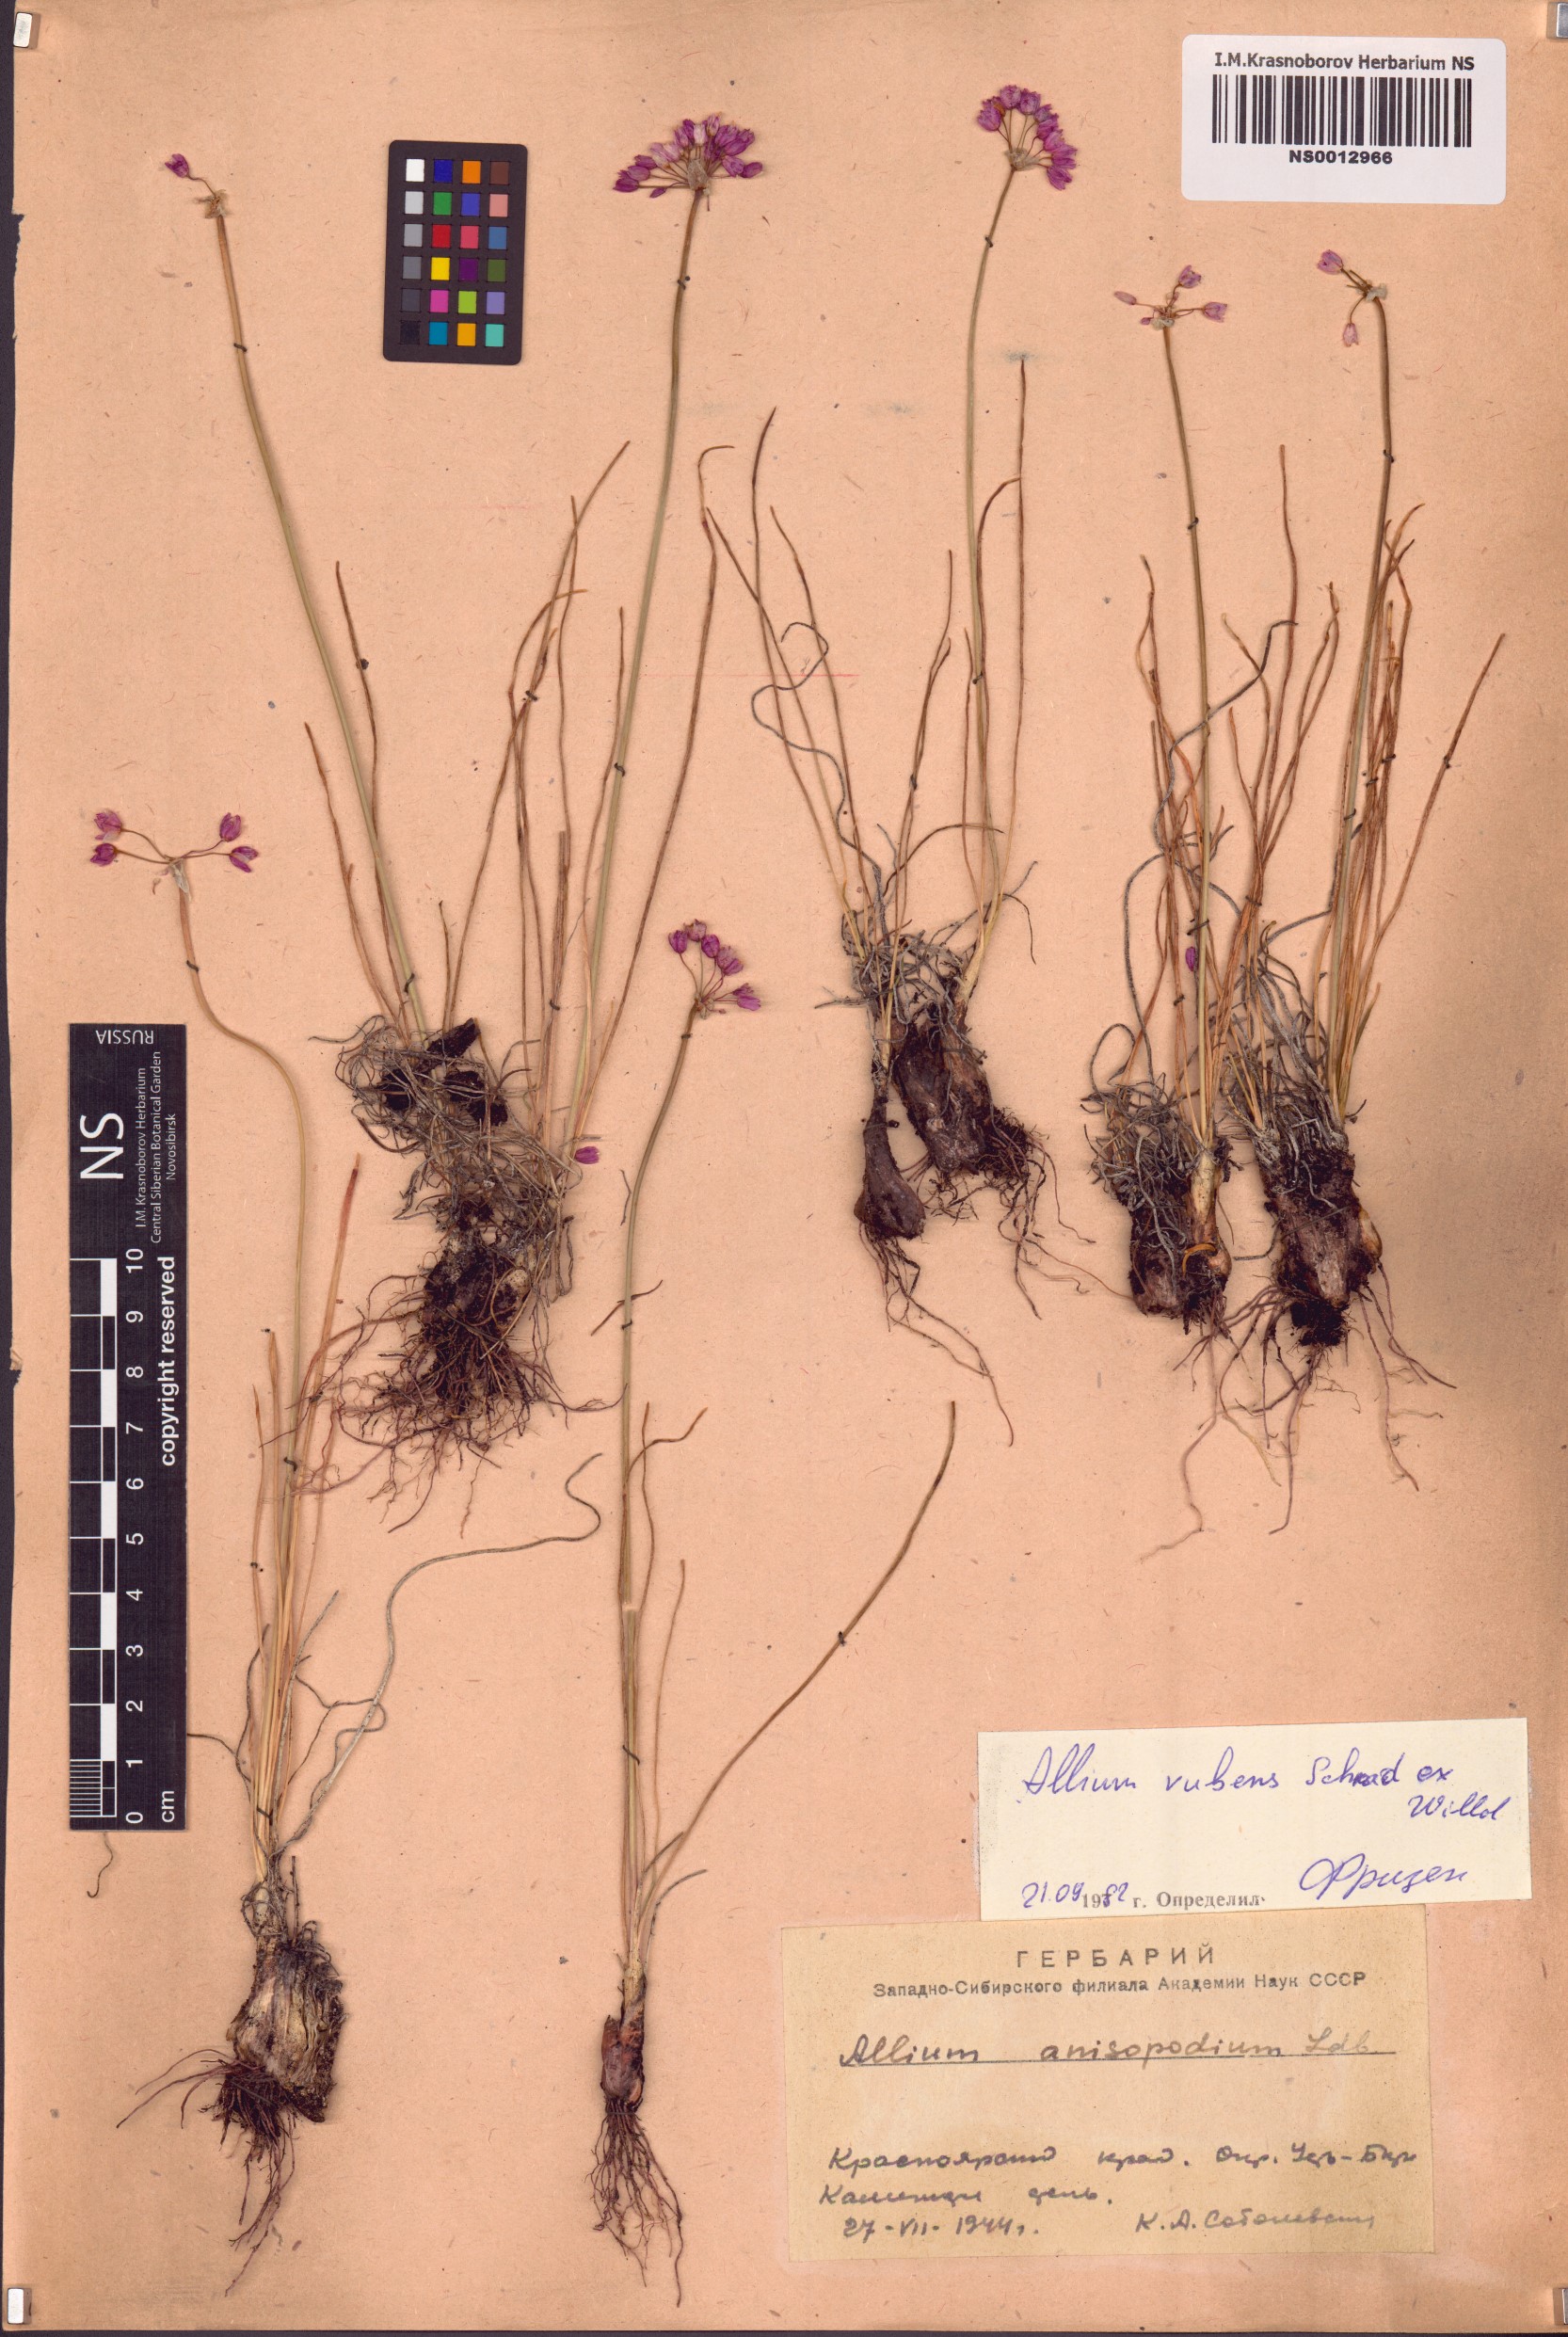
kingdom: Plantae
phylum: Tracheophyta
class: Liliopsida
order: Asparagales
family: Amaryllidaceae
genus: Allium
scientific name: Allium rubens
